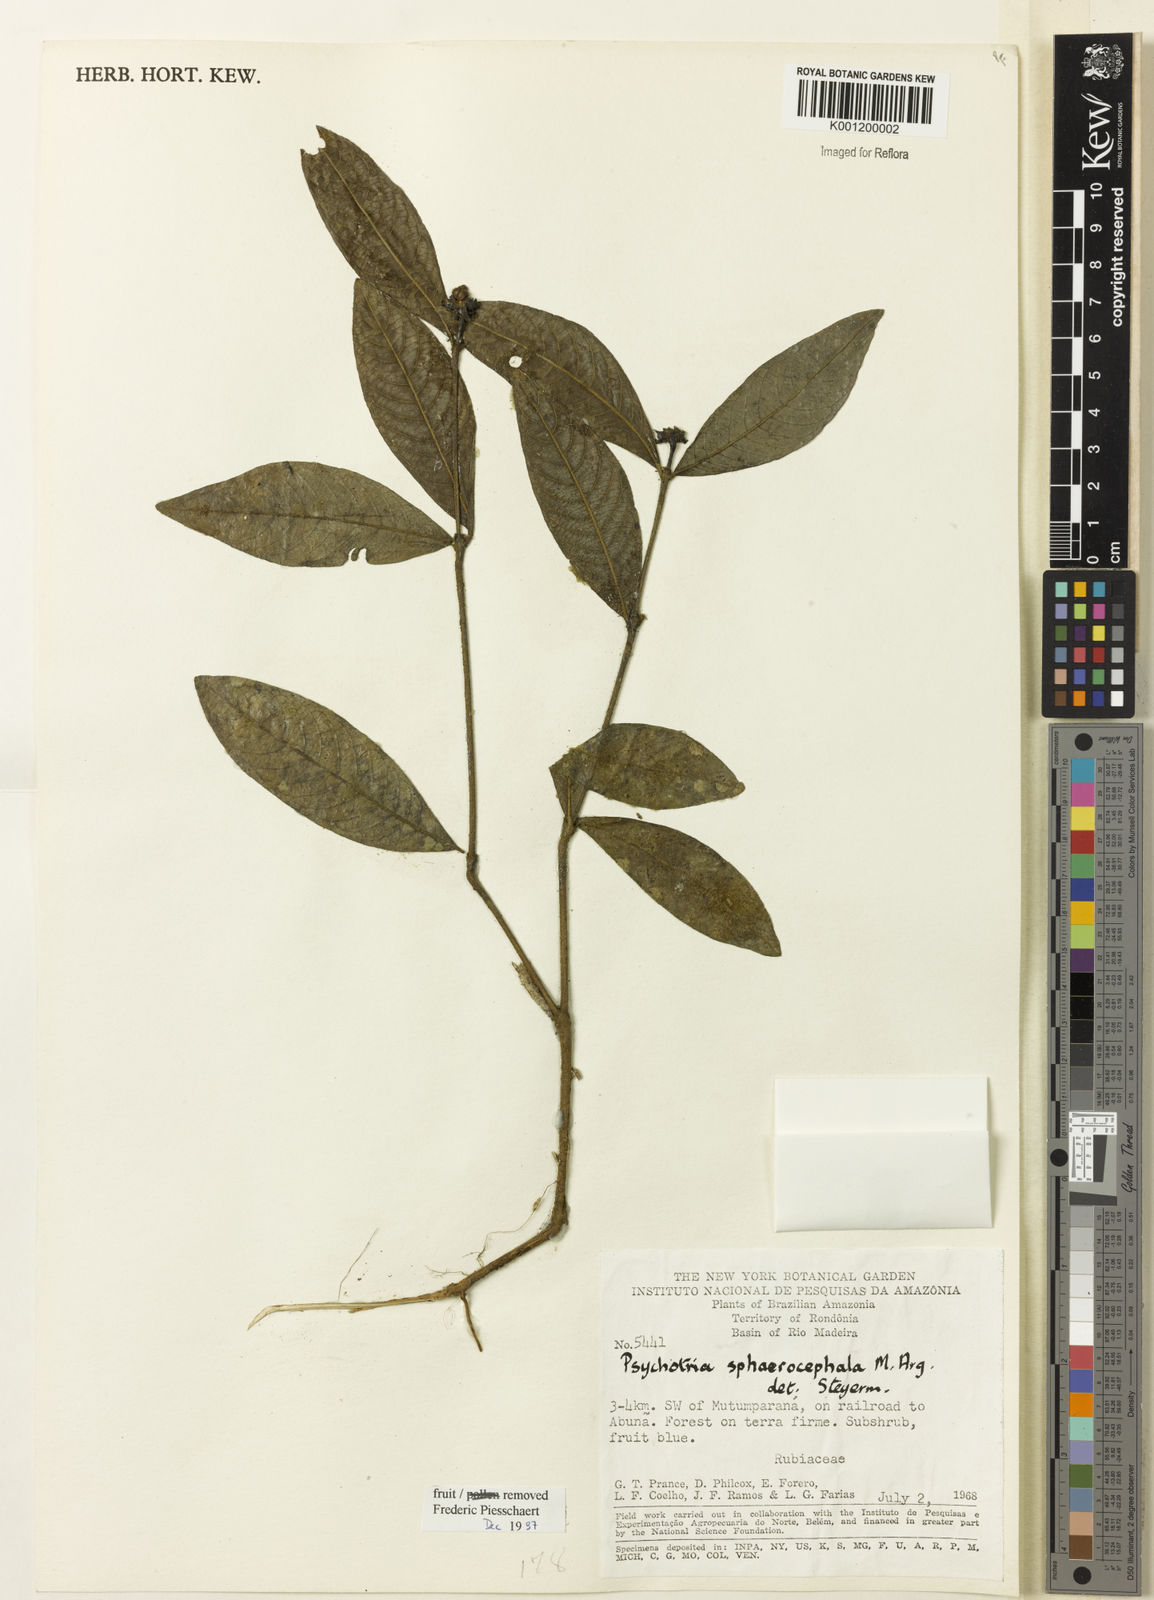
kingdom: Plantae
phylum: Tracheophyta
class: Magnoliopsida
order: Gentianales
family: Rubiaceae
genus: Psychotria
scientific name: Psychotria
